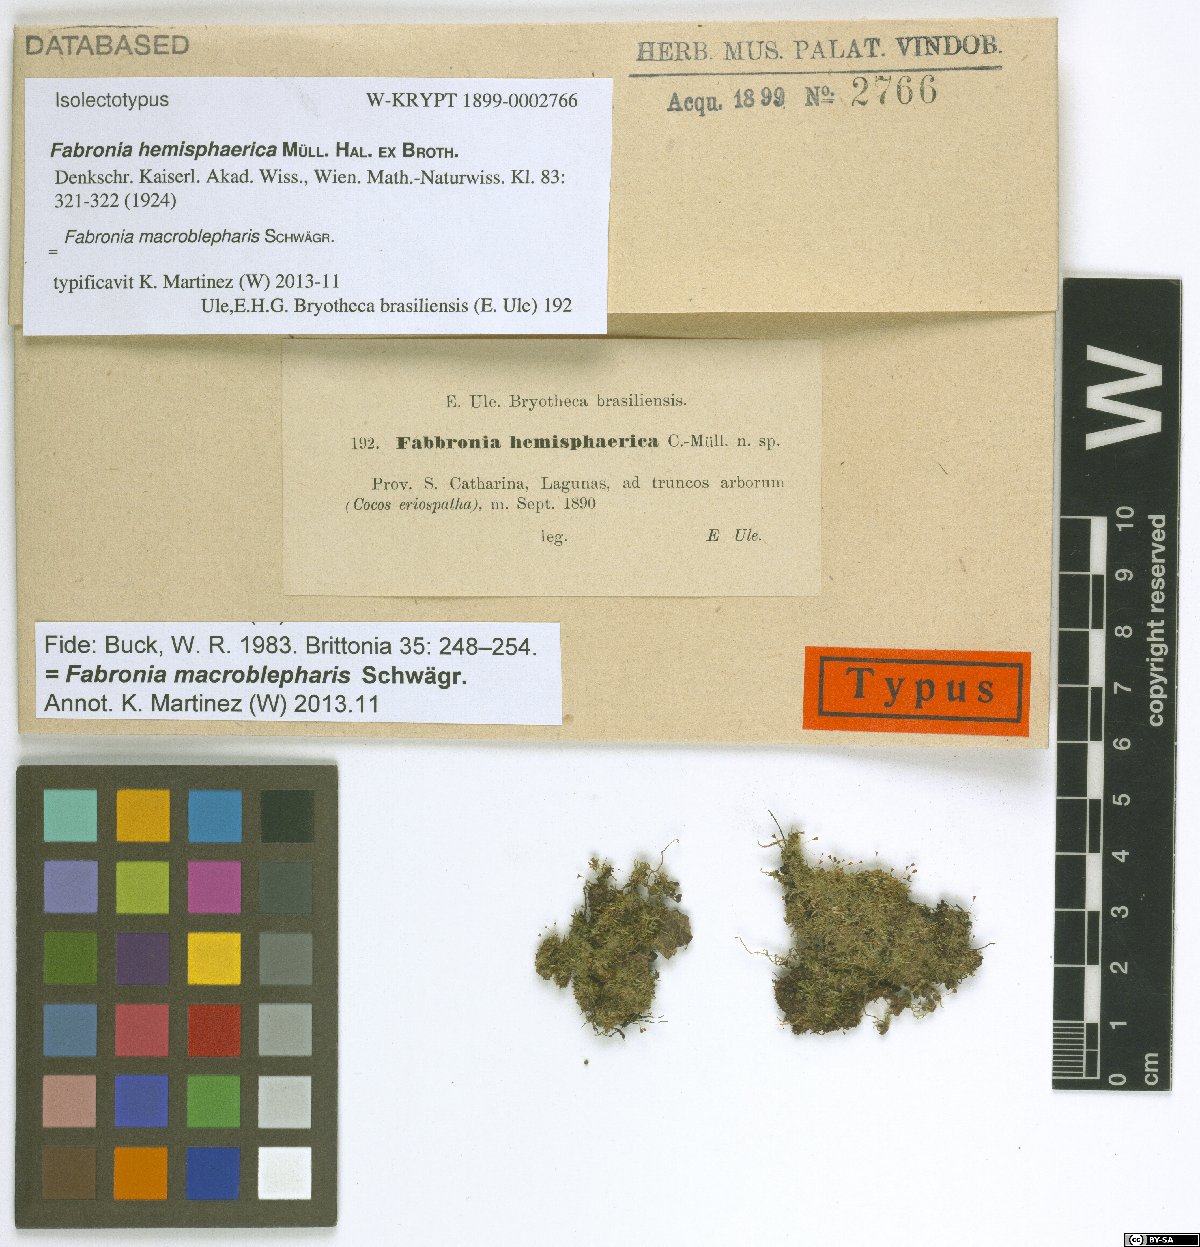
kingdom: Plantae
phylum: Bryophyta
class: Bryopsida
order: Hypnales
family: Fabroniaceae
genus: Fabronia
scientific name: Fabronia macroblepharis
